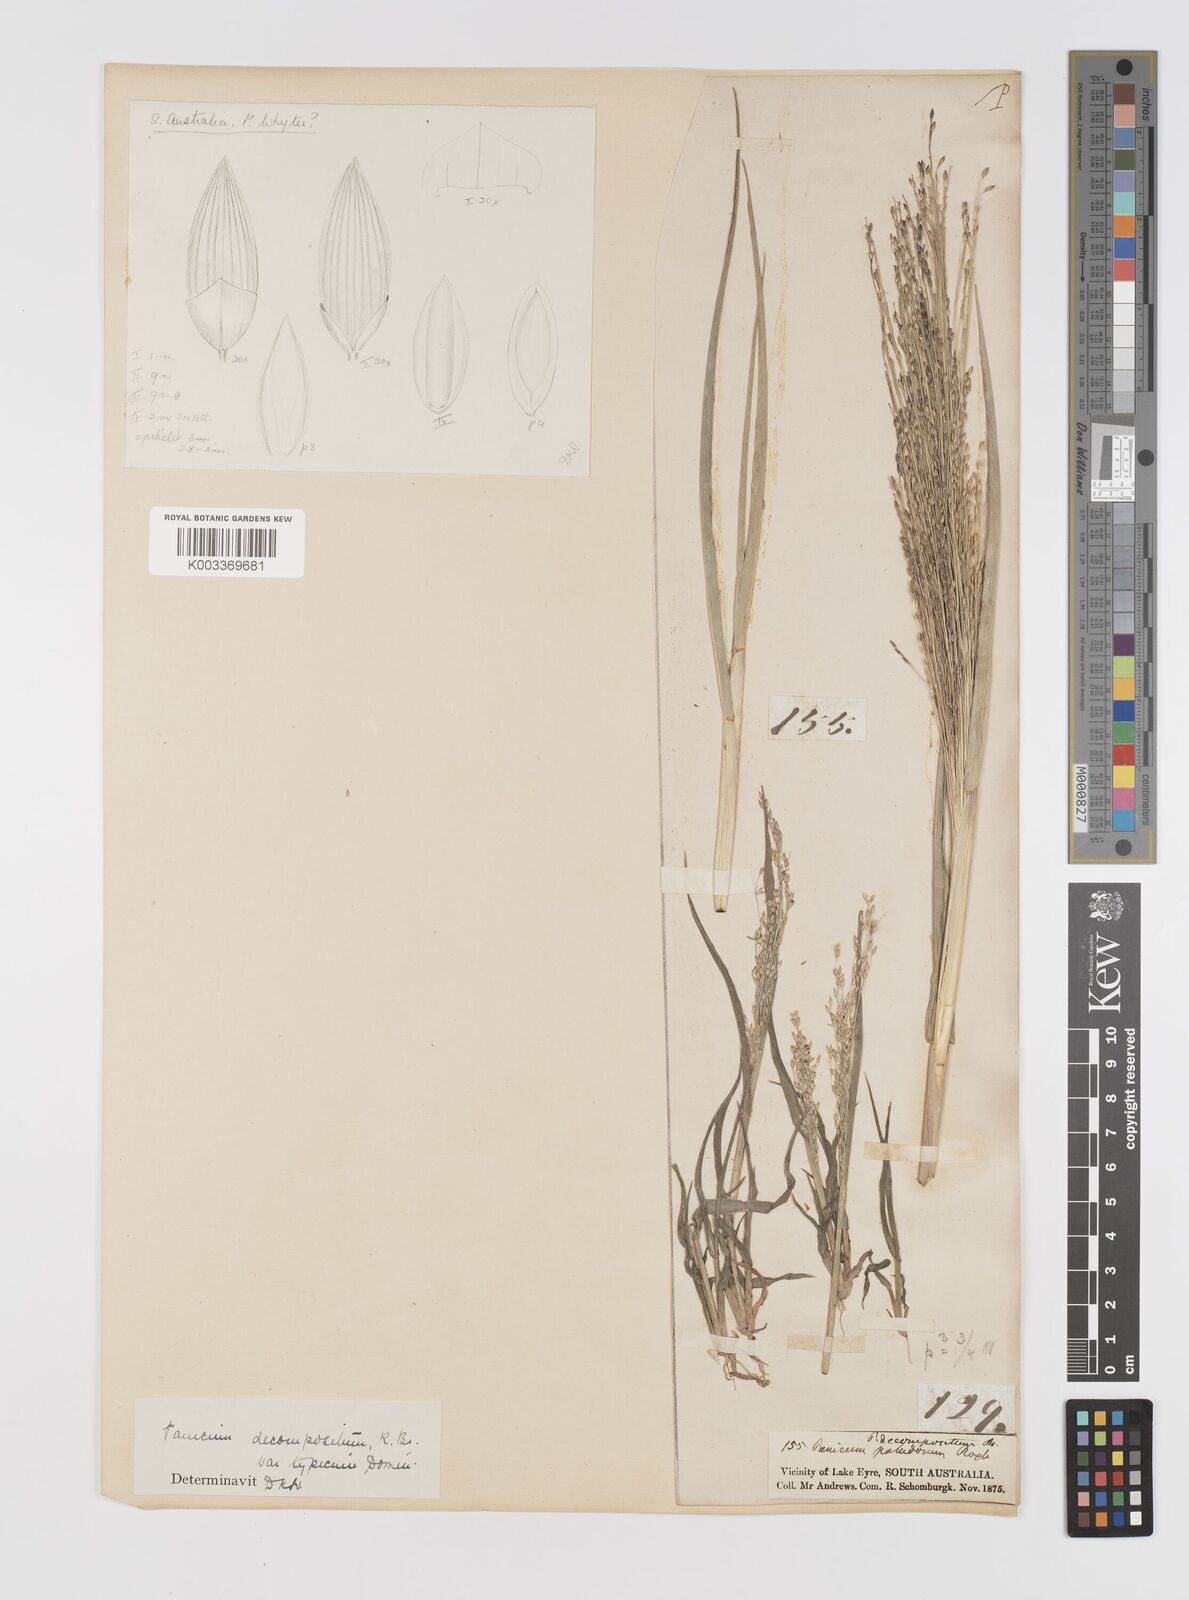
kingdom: Plantae
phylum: Tracheophyta
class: Liliopsida
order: Poales
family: Poaceae
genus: Panicum
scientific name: Panicum decompositum
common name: Australian millet
